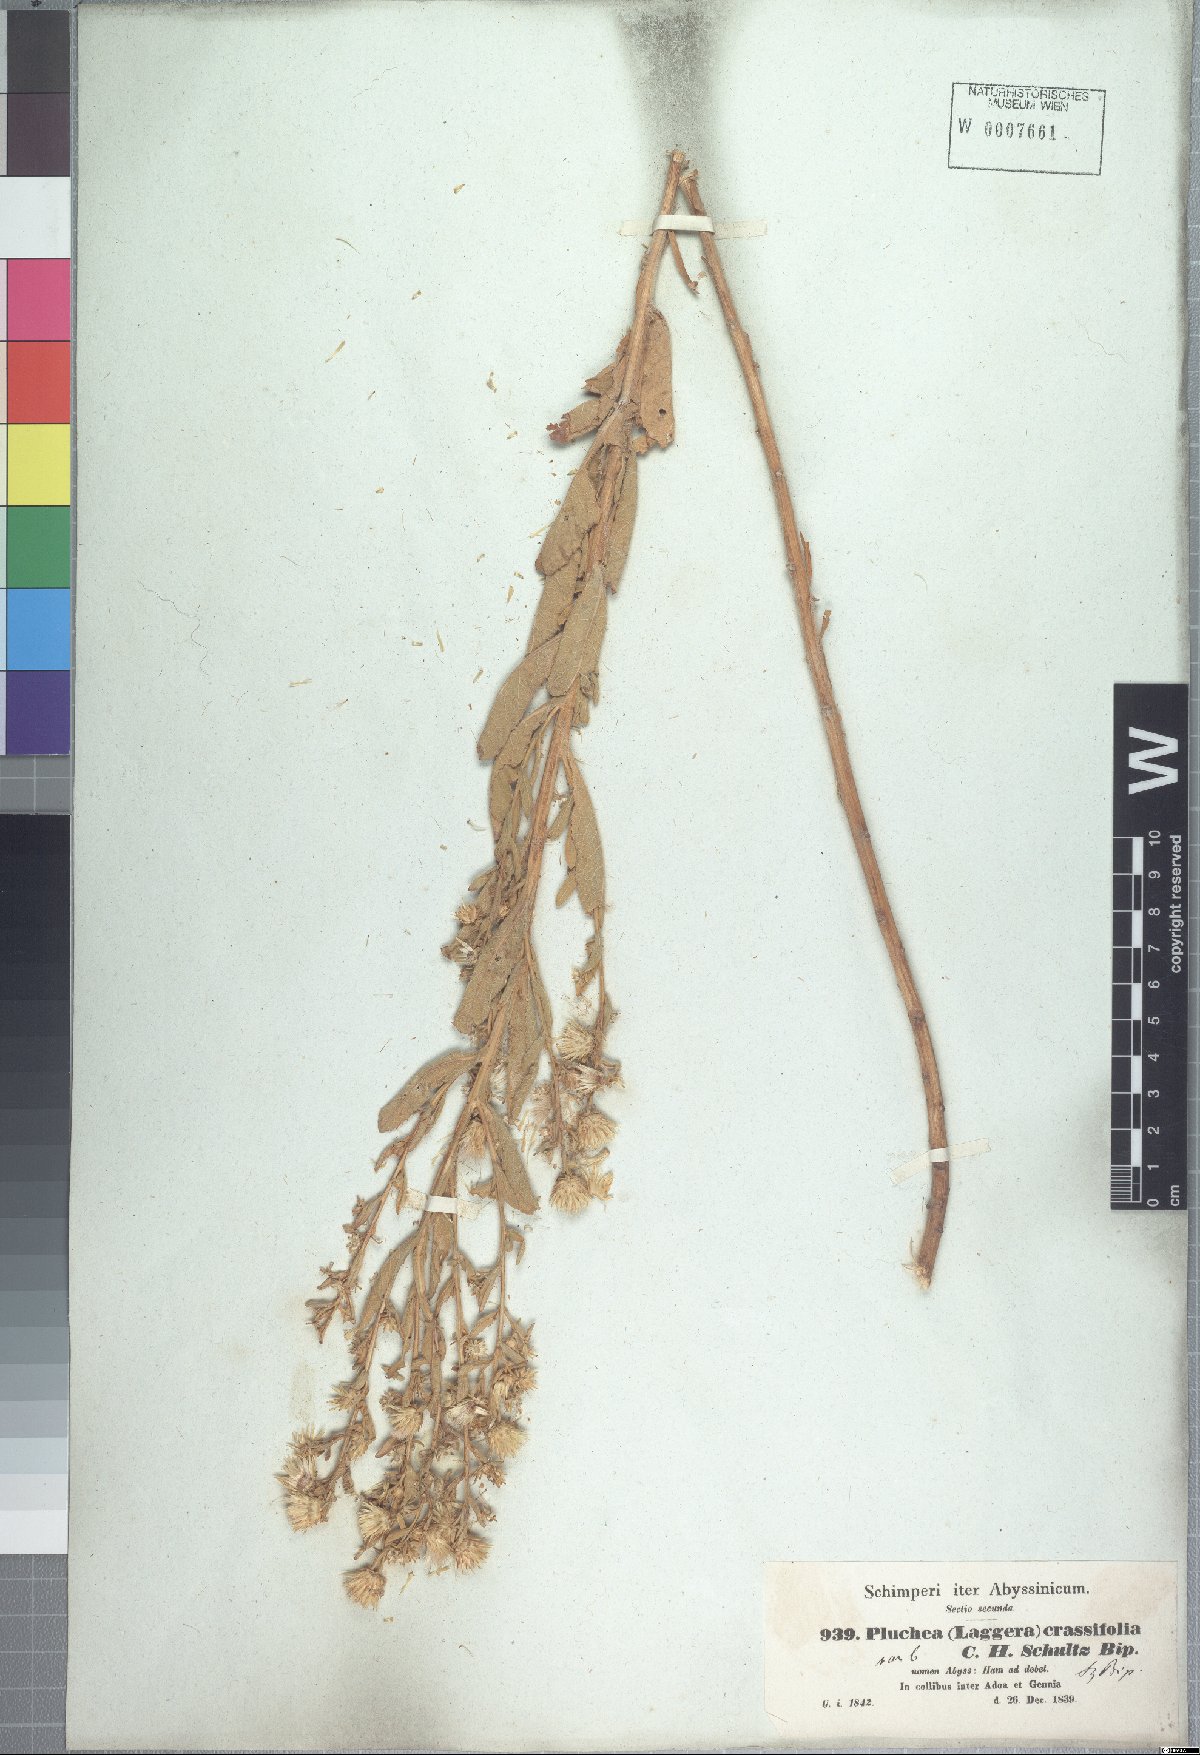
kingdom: Plantae
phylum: Tracheophyta
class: Magnoliopsida
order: Asterales
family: Asteraceae
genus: Laggera
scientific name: Laggera crassifolia
